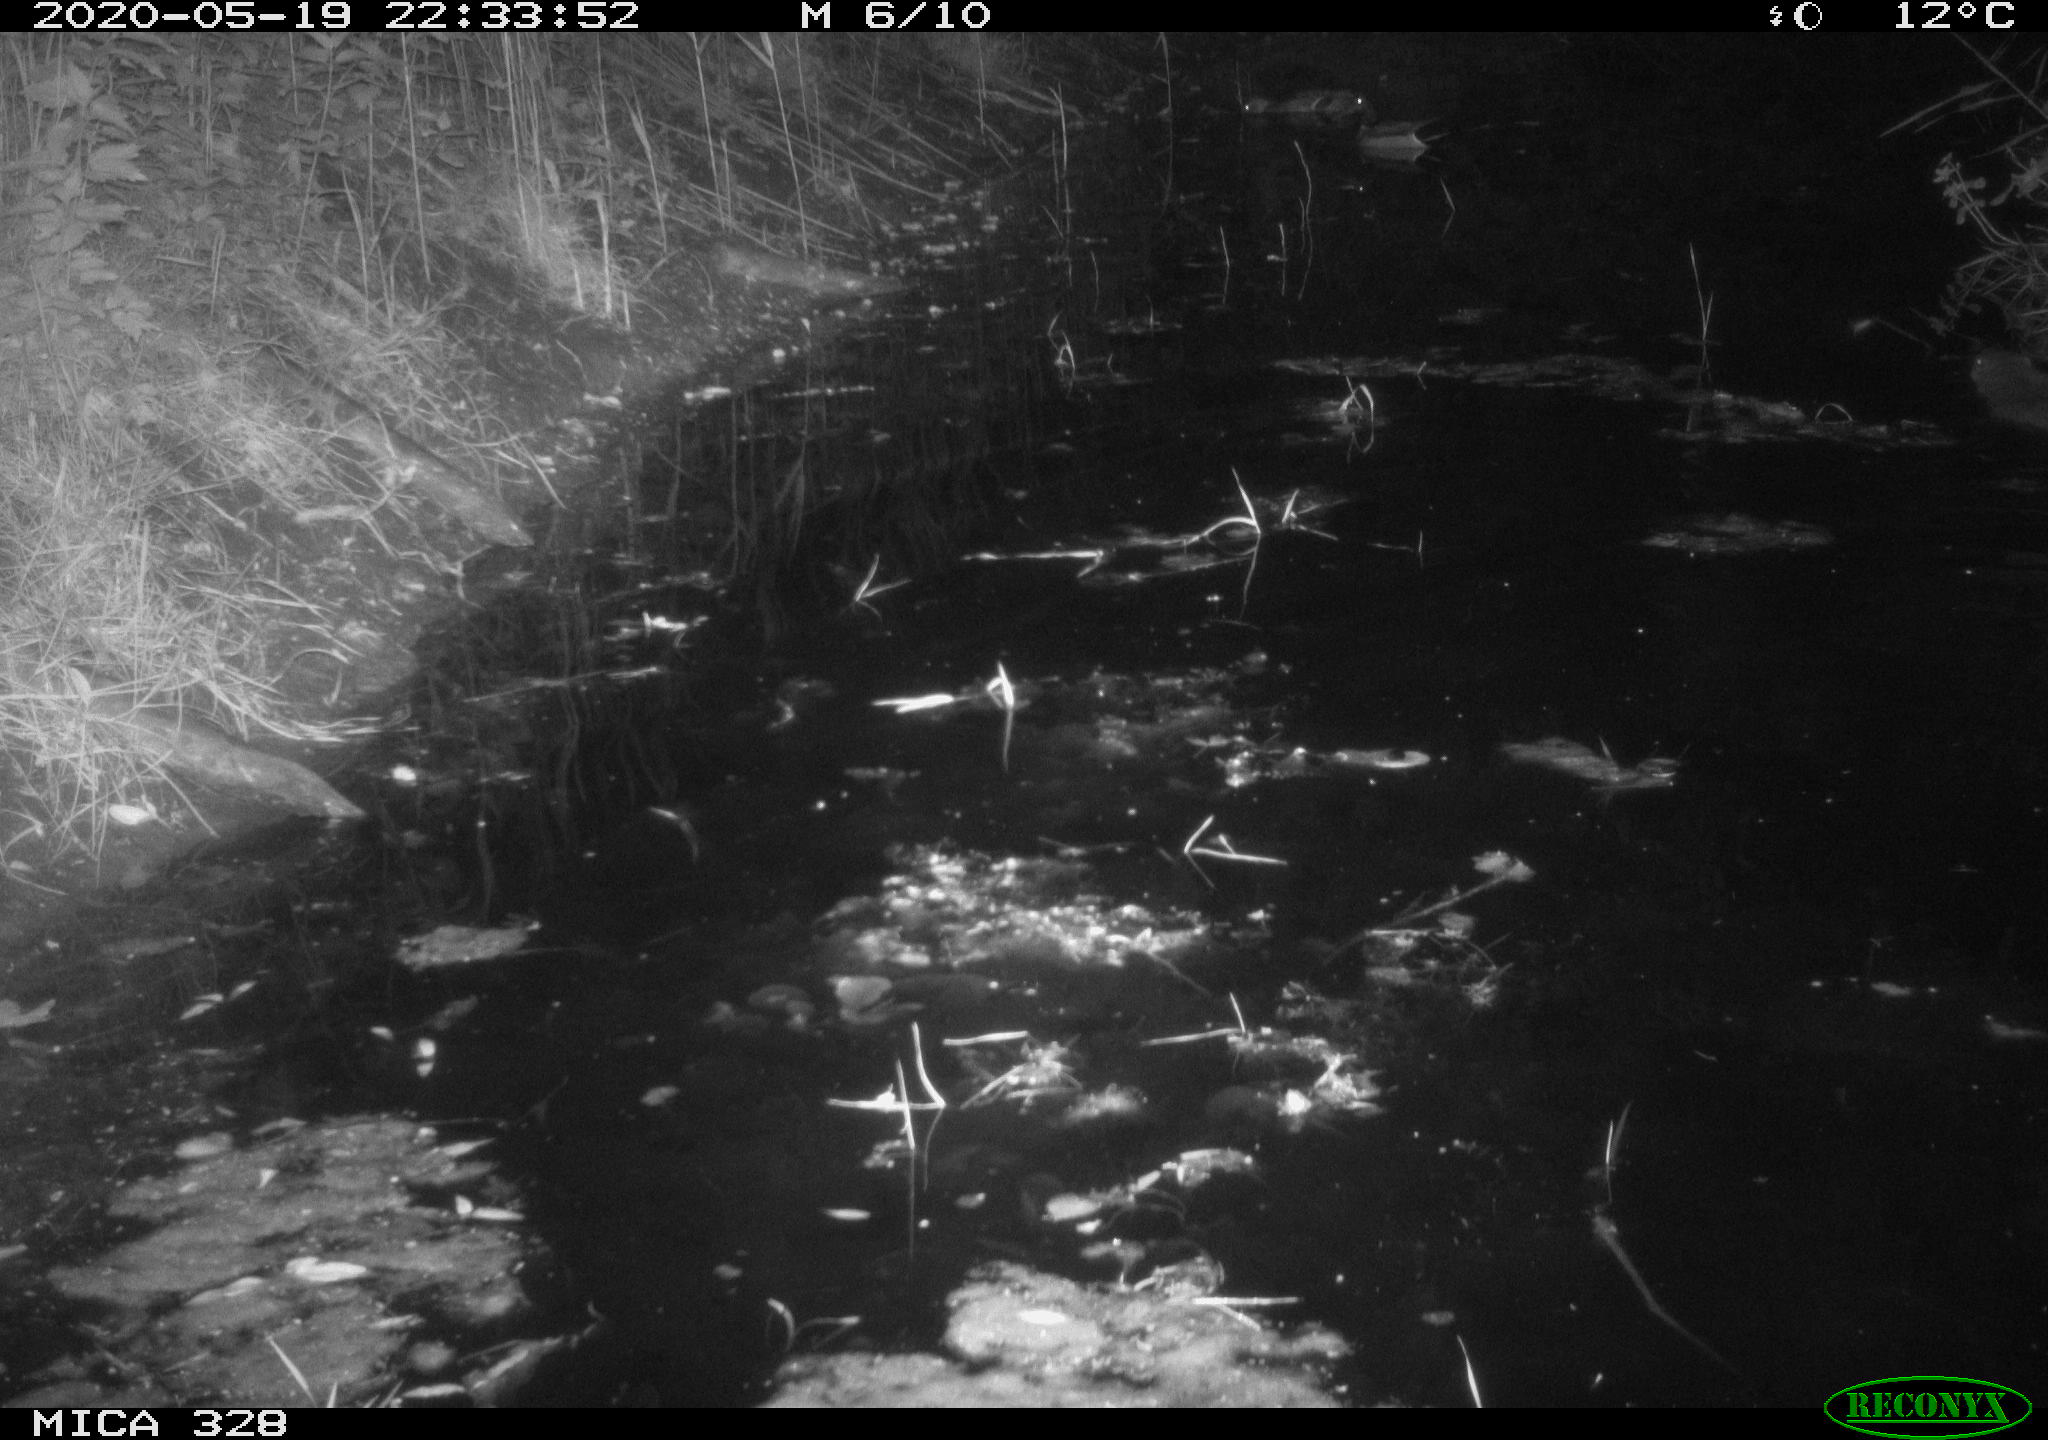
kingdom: Animalia
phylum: Chordata
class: Aves
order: Anseriformes
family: Anatidae
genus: Anas
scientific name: Anas platyrhynchos
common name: Mallard
